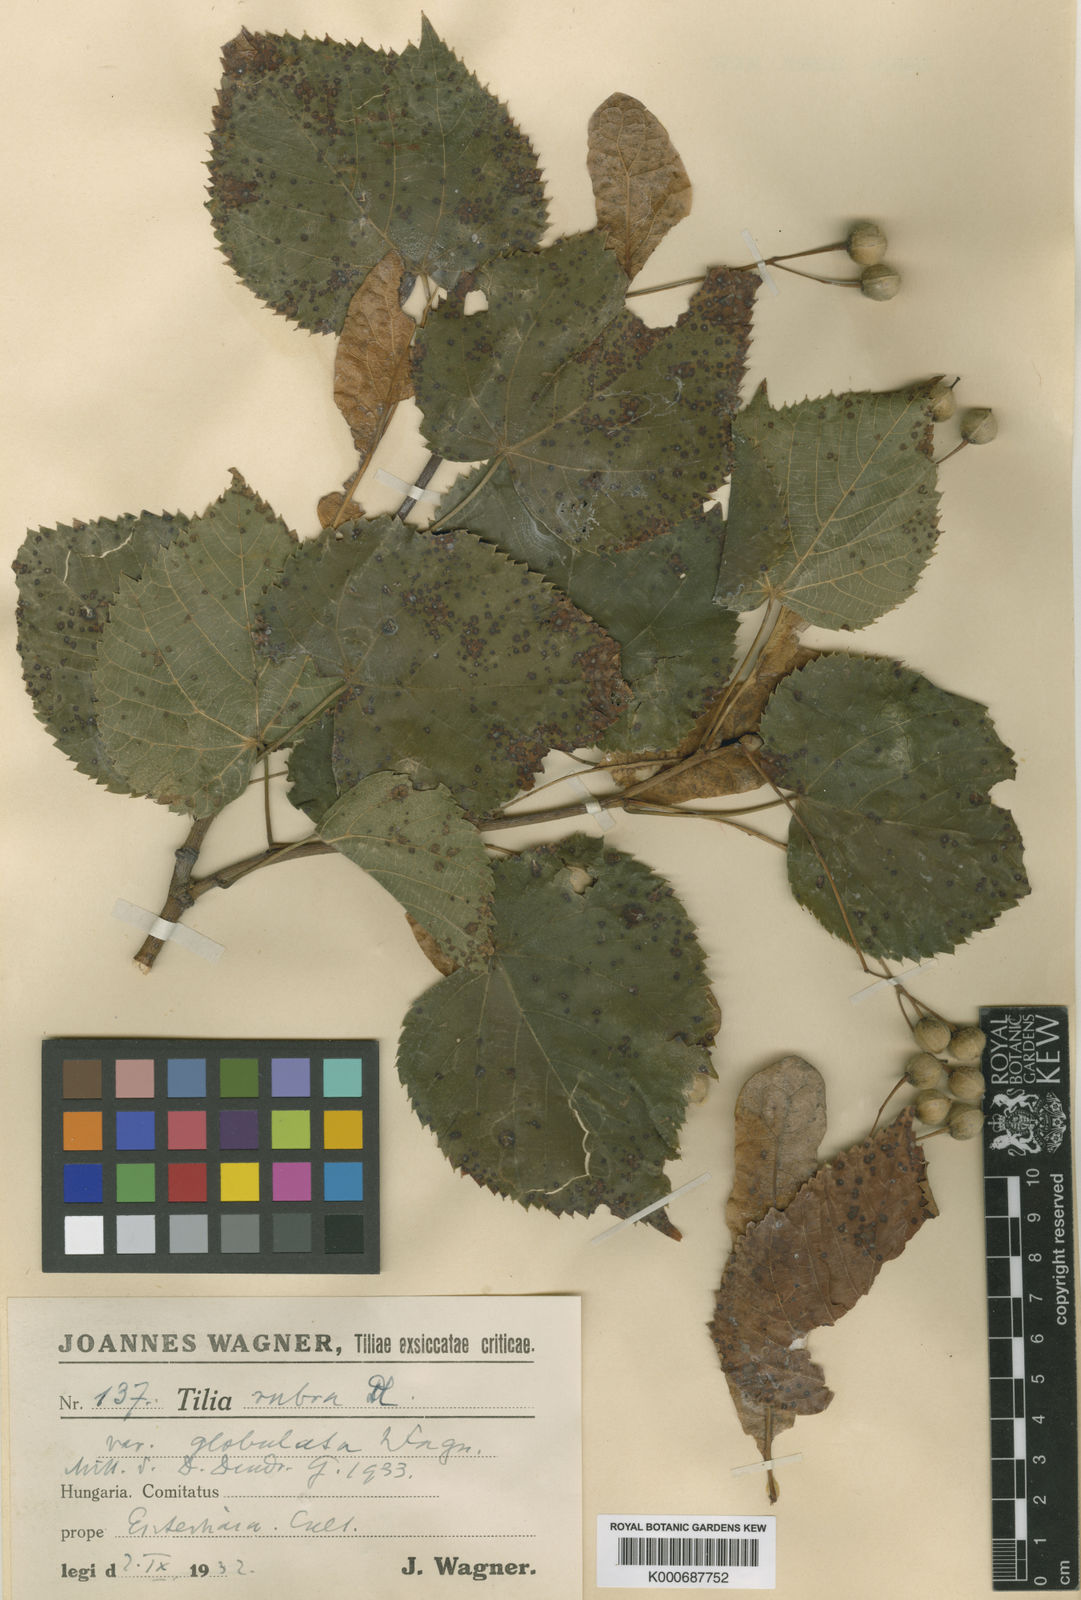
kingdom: Plantae
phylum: Tracheophyta
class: Magnoliopsida
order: Malvales
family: Malvaceae
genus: Tilia
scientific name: Tilia platyphyllos
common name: Large-leaved lime
